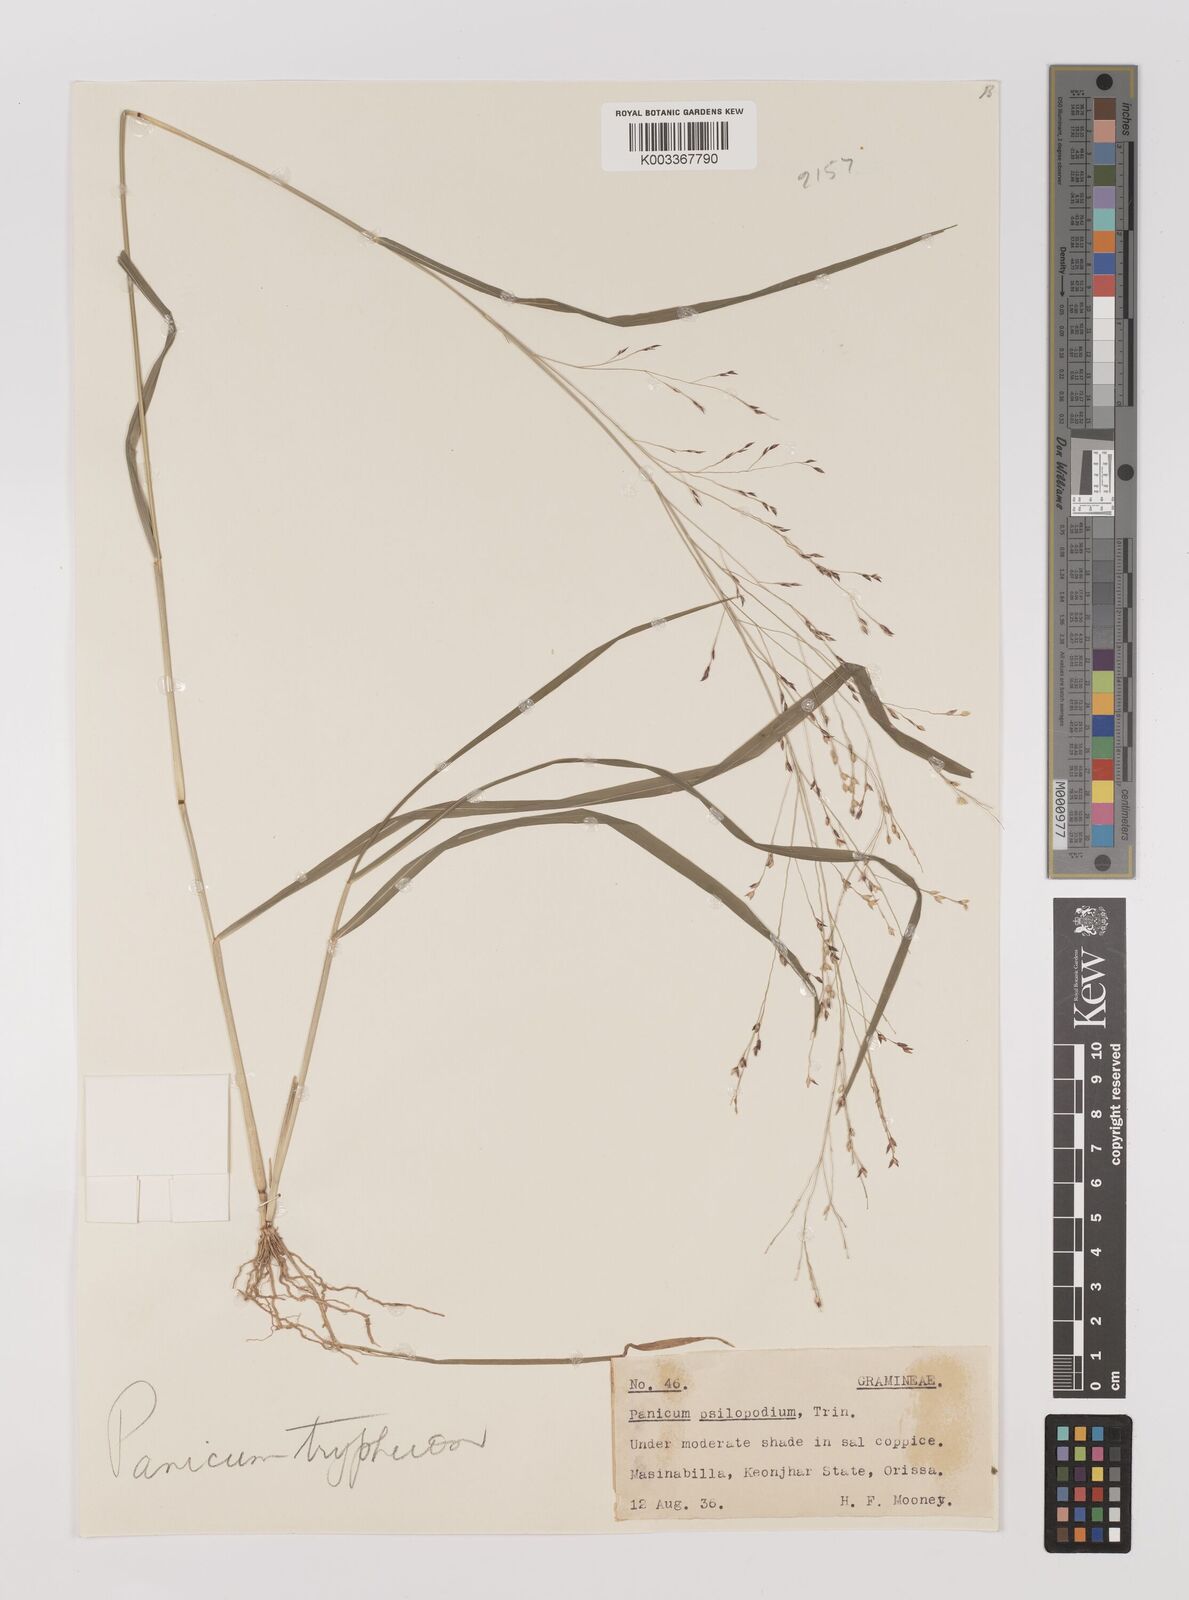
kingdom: Plantae
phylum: Tracheophyta
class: Liliopsida
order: Poales
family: Poaceae
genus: Panicum
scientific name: Panicum curviflorum
